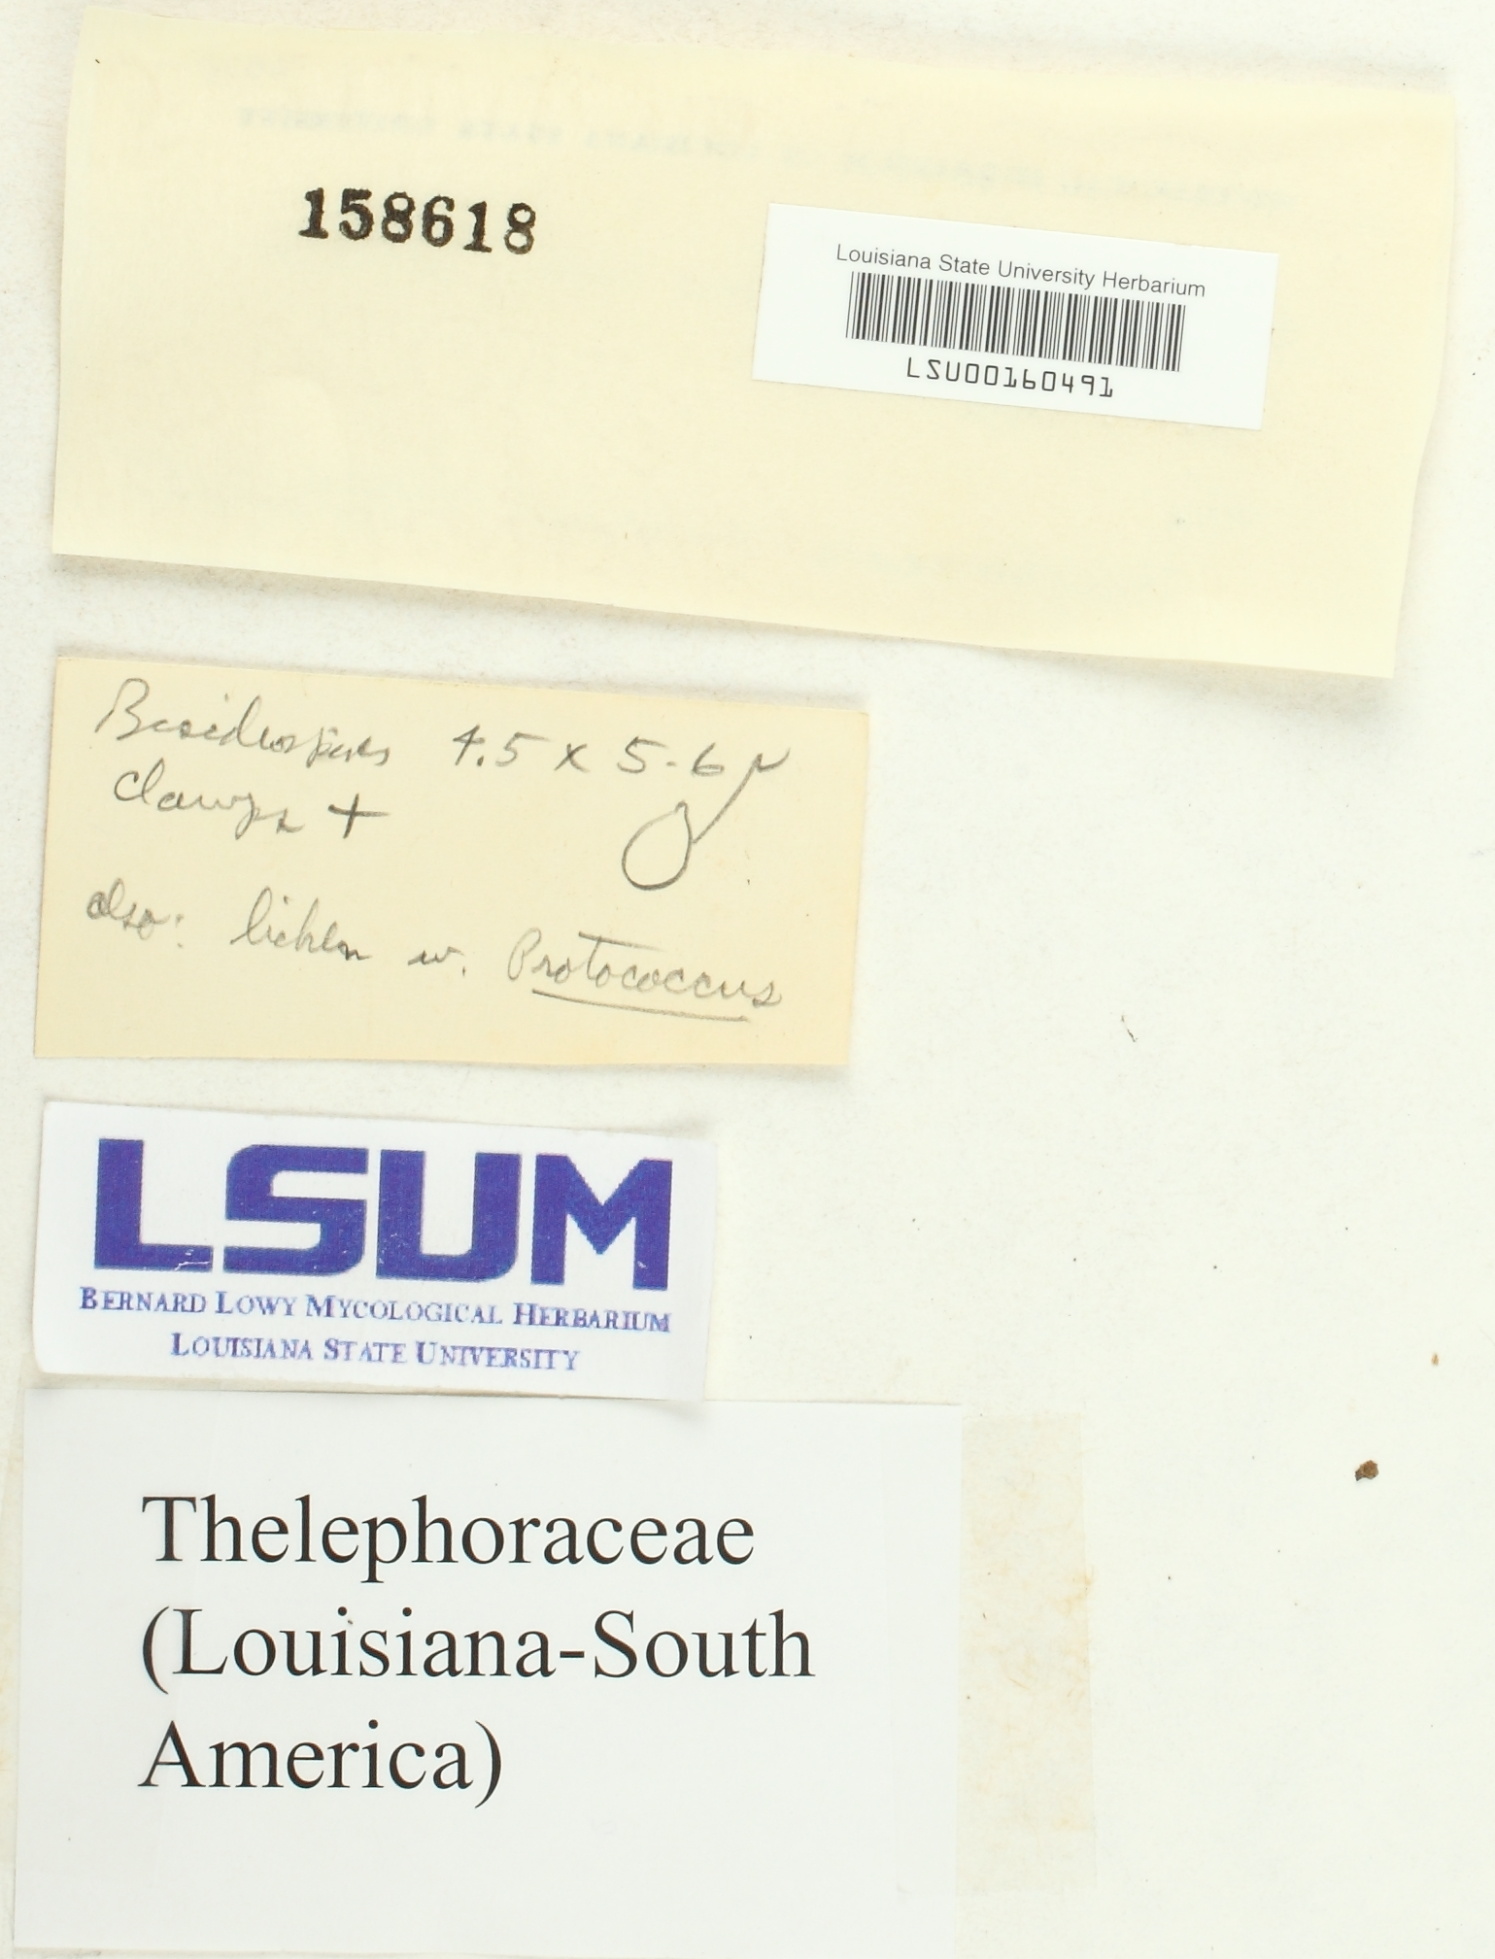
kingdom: Fungi
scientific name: Fungi
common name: Fungi
